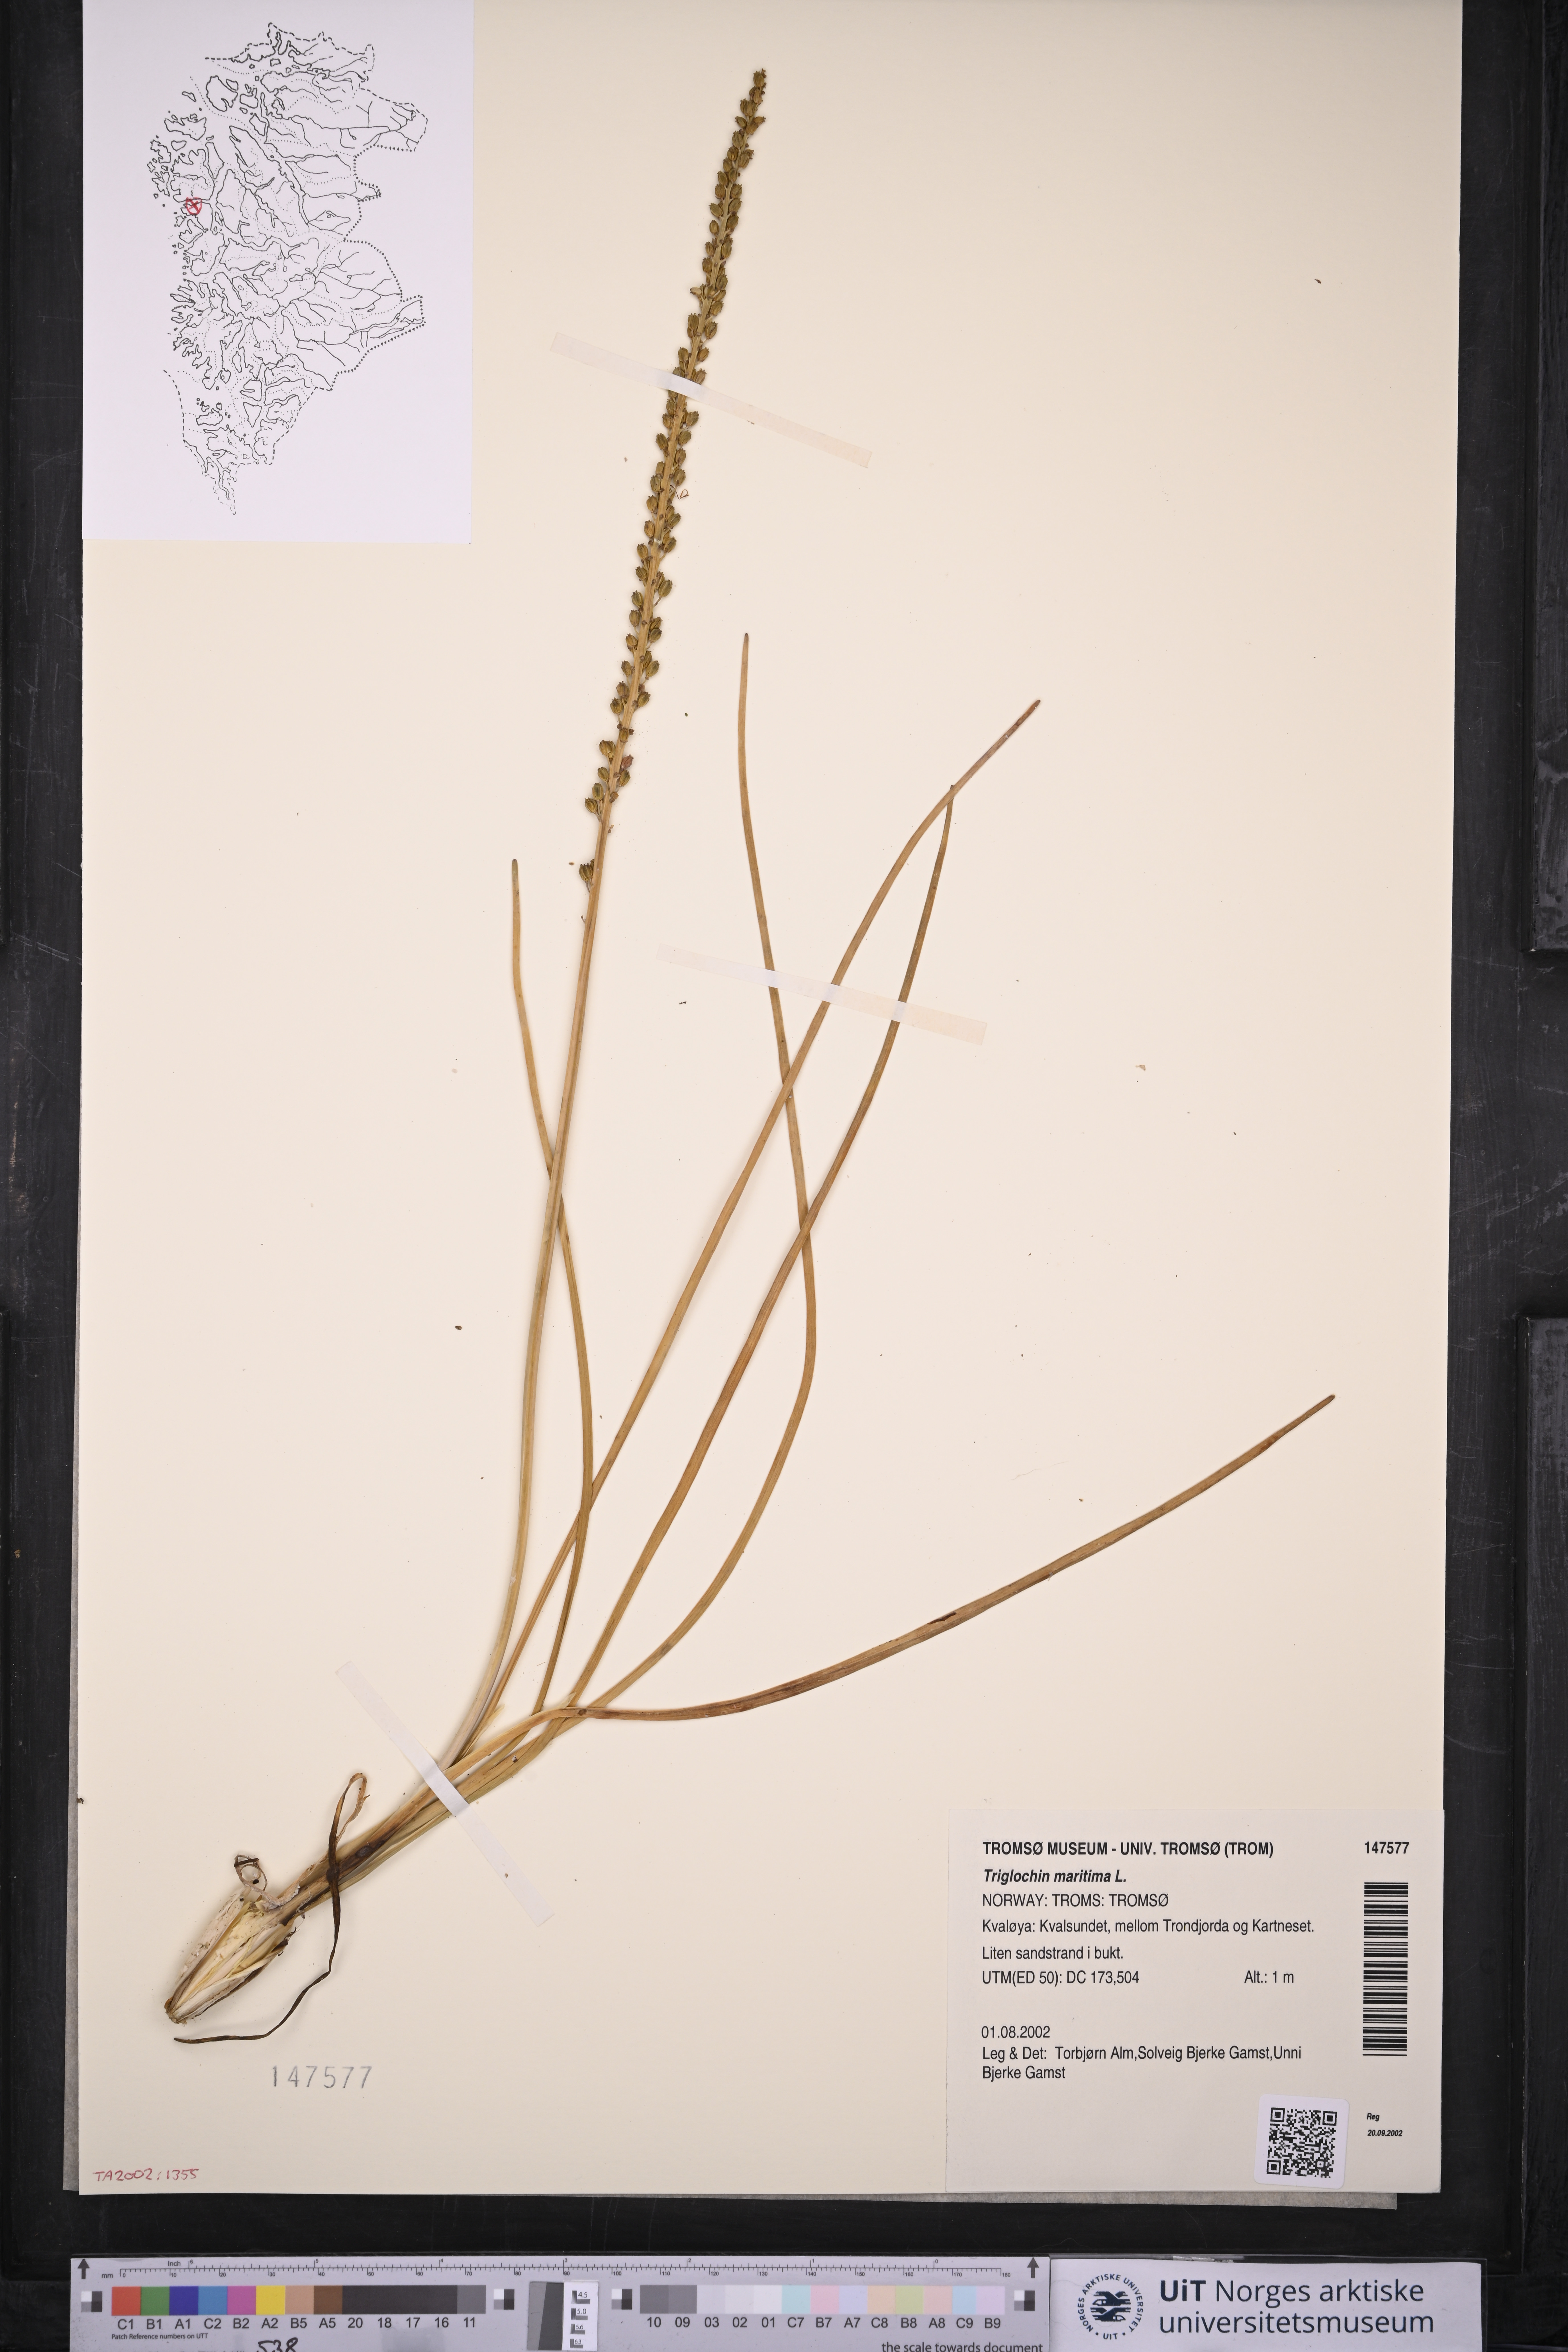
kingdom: Plantae
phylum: Tracheophyta
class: Liliopsida
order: Alismatales
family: Juncaginaceae
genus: Triglochin
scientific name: Triglochin maritima
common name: Sea arrowgrass
